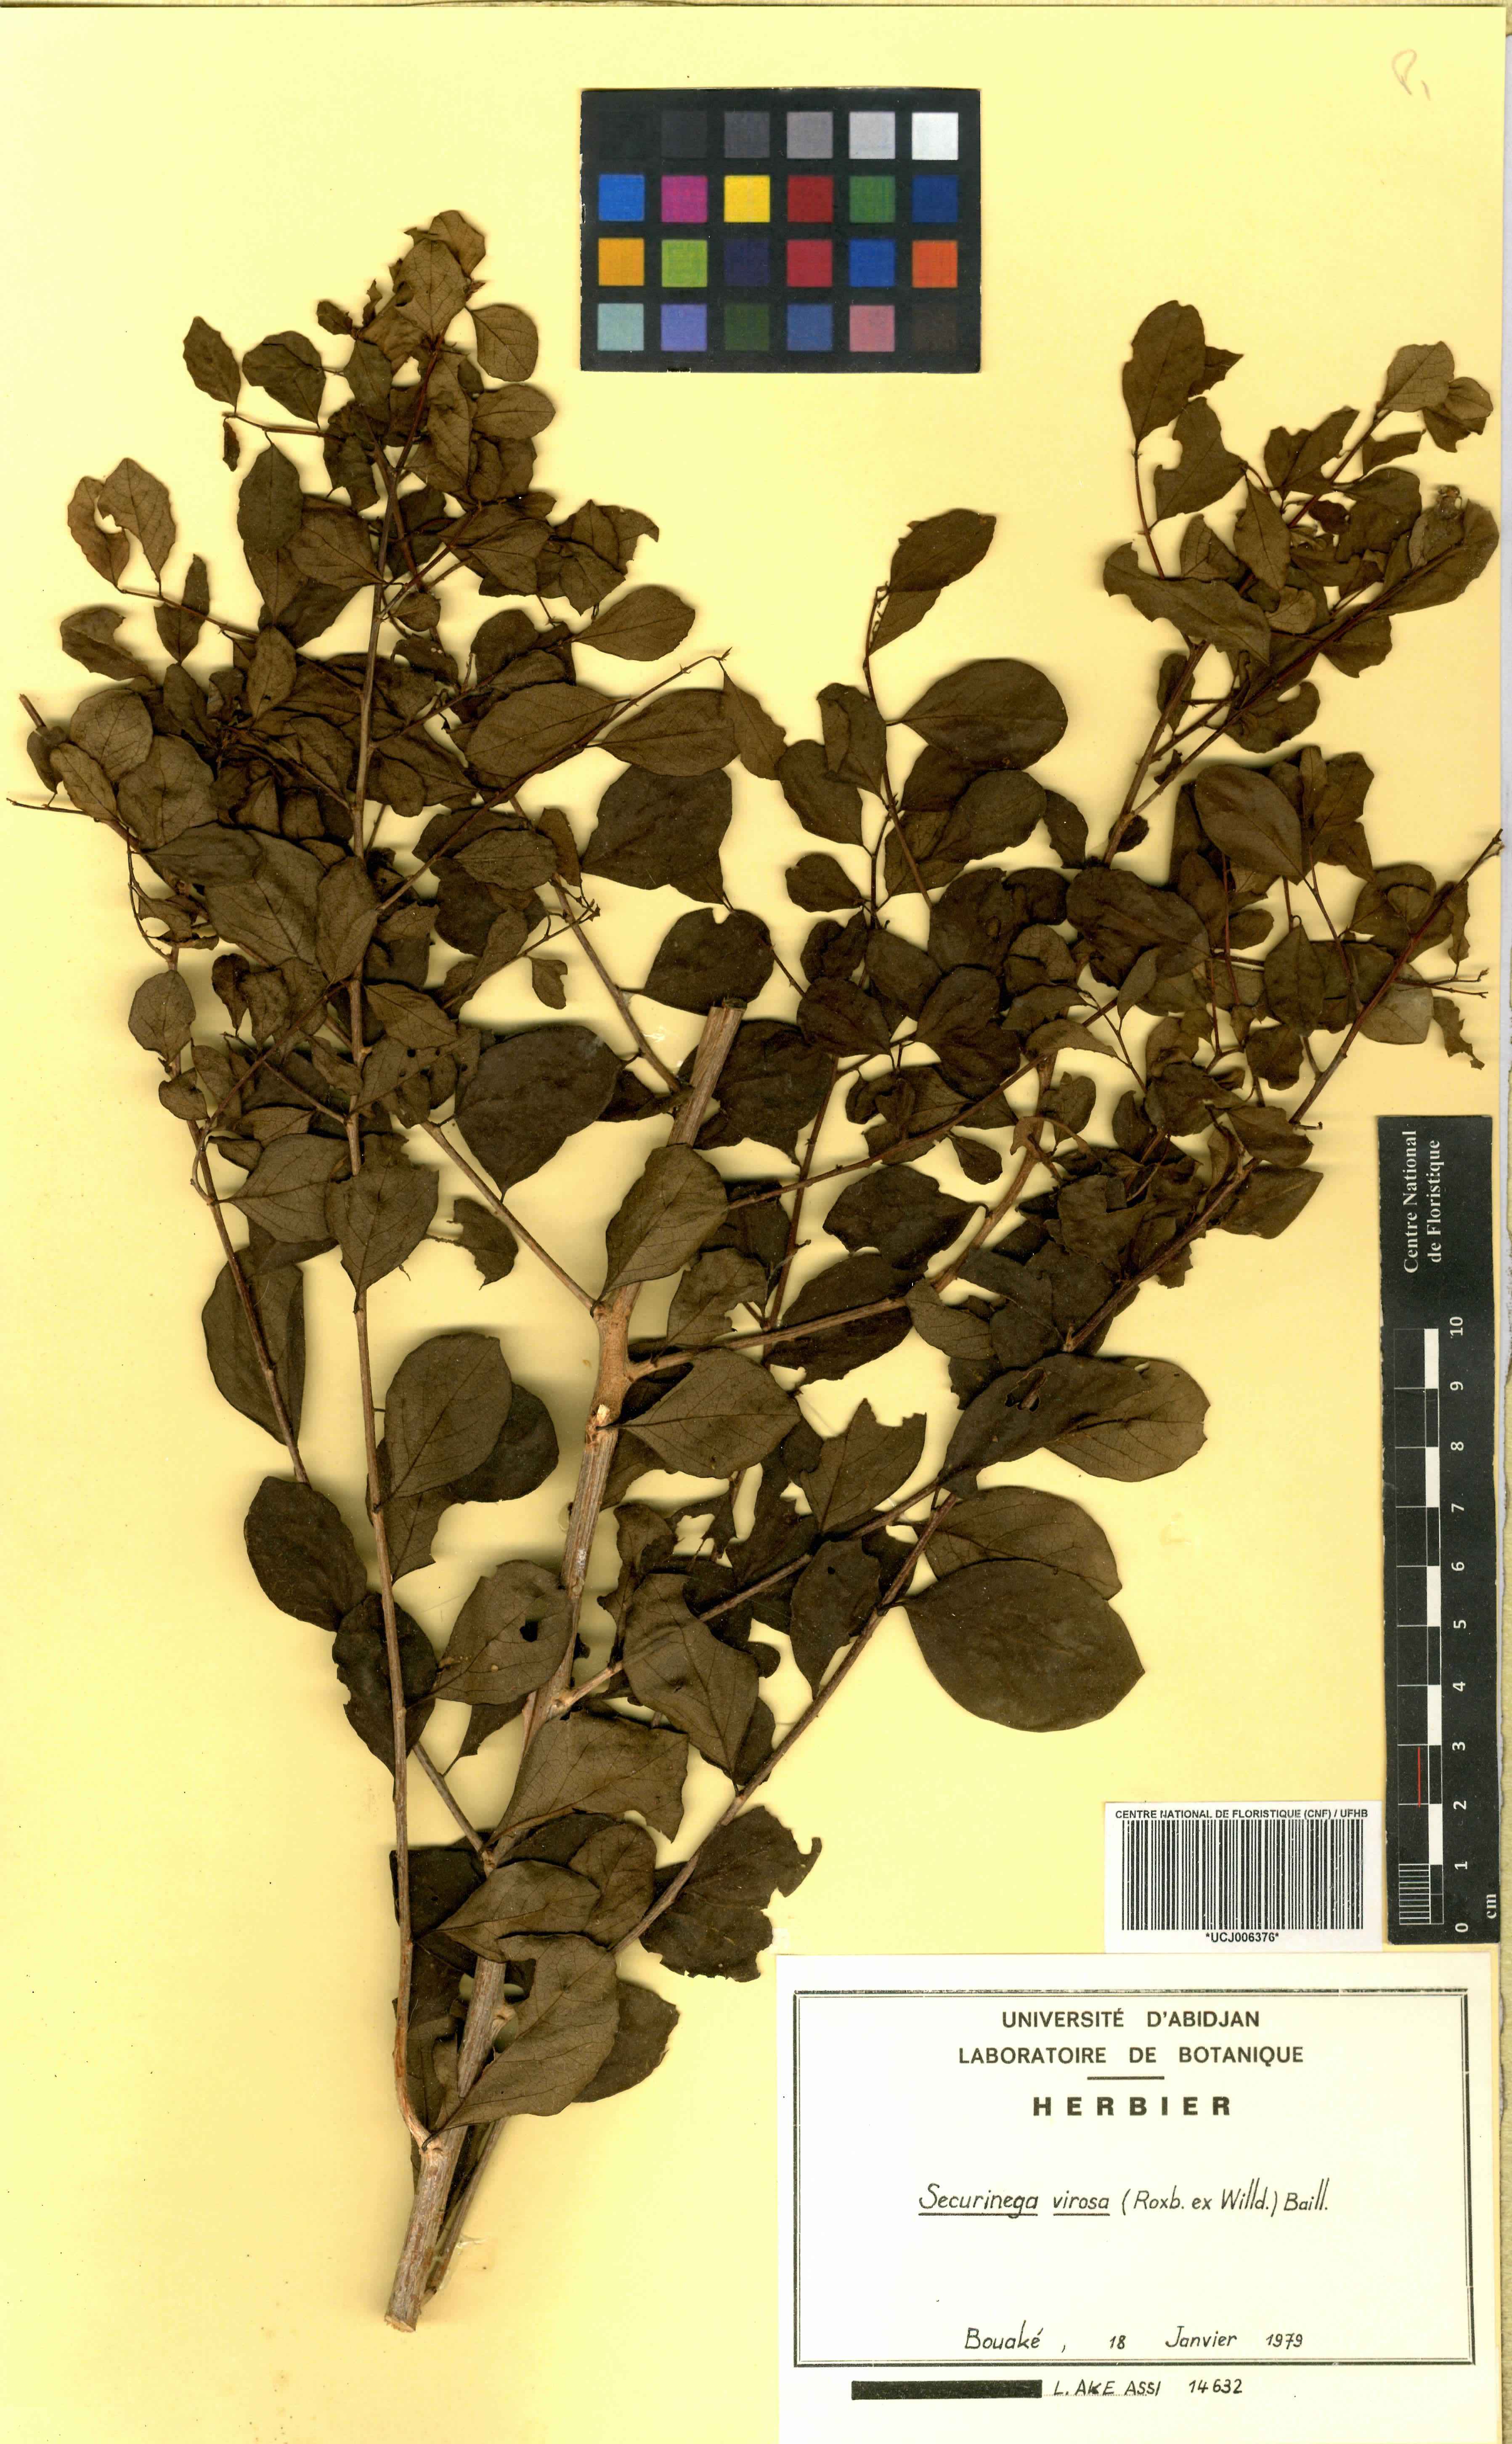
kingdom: Plantae
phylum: Tracheophyta
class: Magnoliopsida
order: Malpighiales
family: Phyllanthaceae
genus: Flueggea
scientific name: Flueggea virosa
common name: Common bushweed
